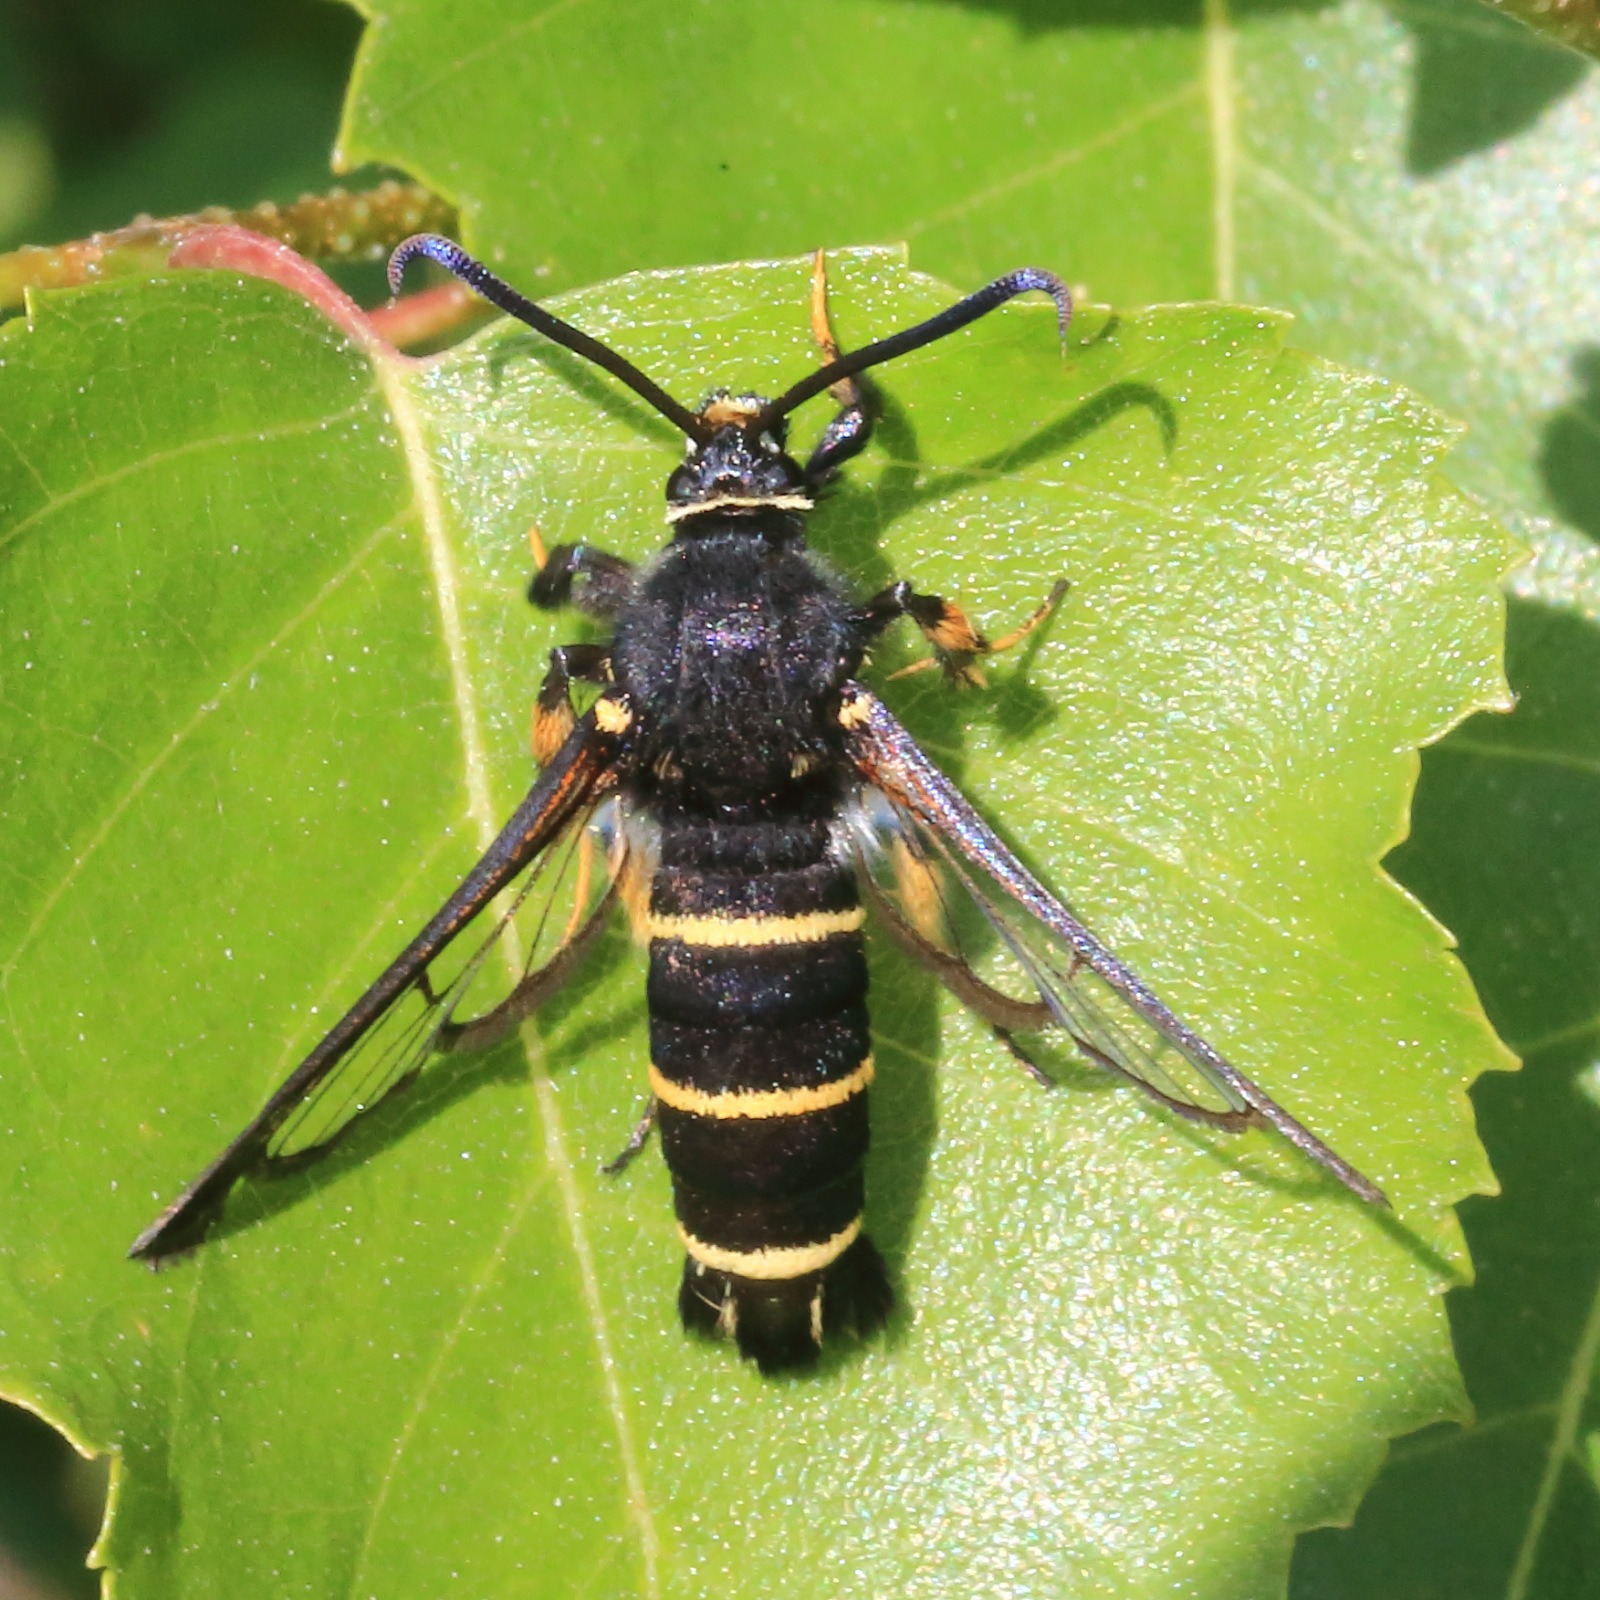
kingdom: Animalia
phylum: Arthropoda
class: Insecta
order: Lepidoptera
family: Sesiidae
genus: Paranthrene
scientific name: Paranthrene tabaniformis
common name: Sort glassværmer
